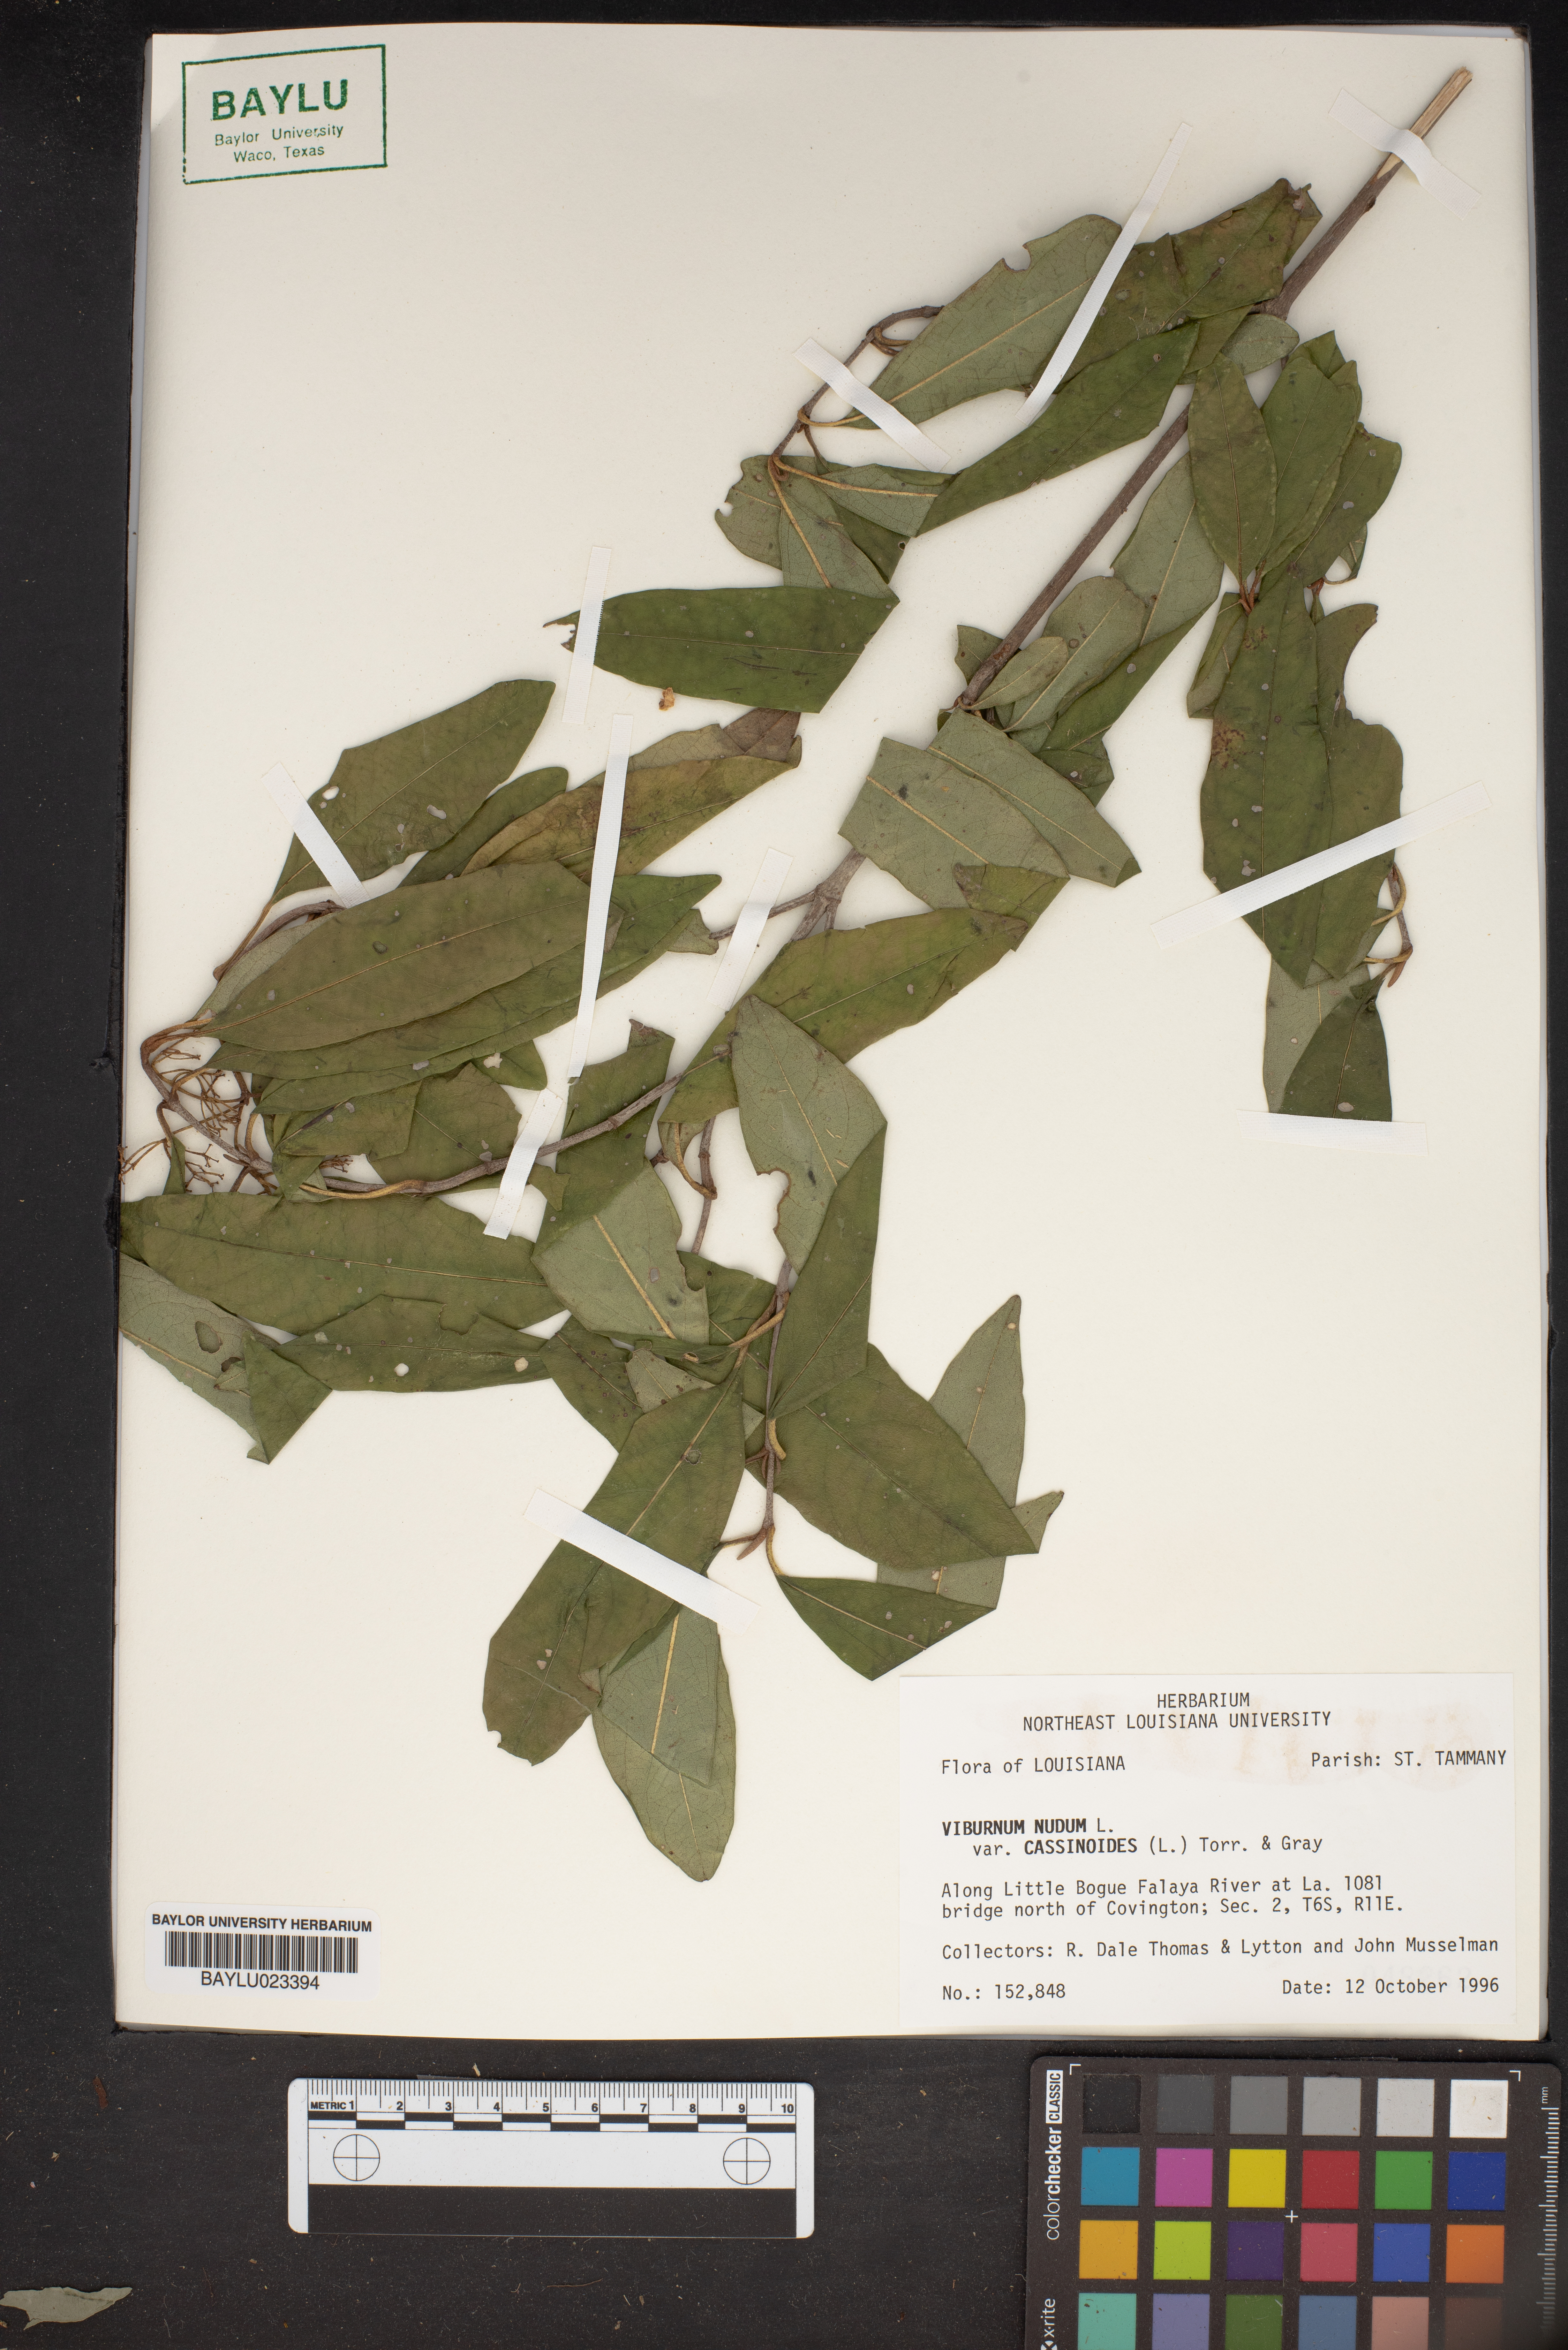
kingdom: Plantae
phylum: Tracheophyta
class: Magnoliopsida
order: Dipsacales
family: Viburnaceae
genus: Viburnum
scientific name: Viburnum nudum
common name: Possum haw
